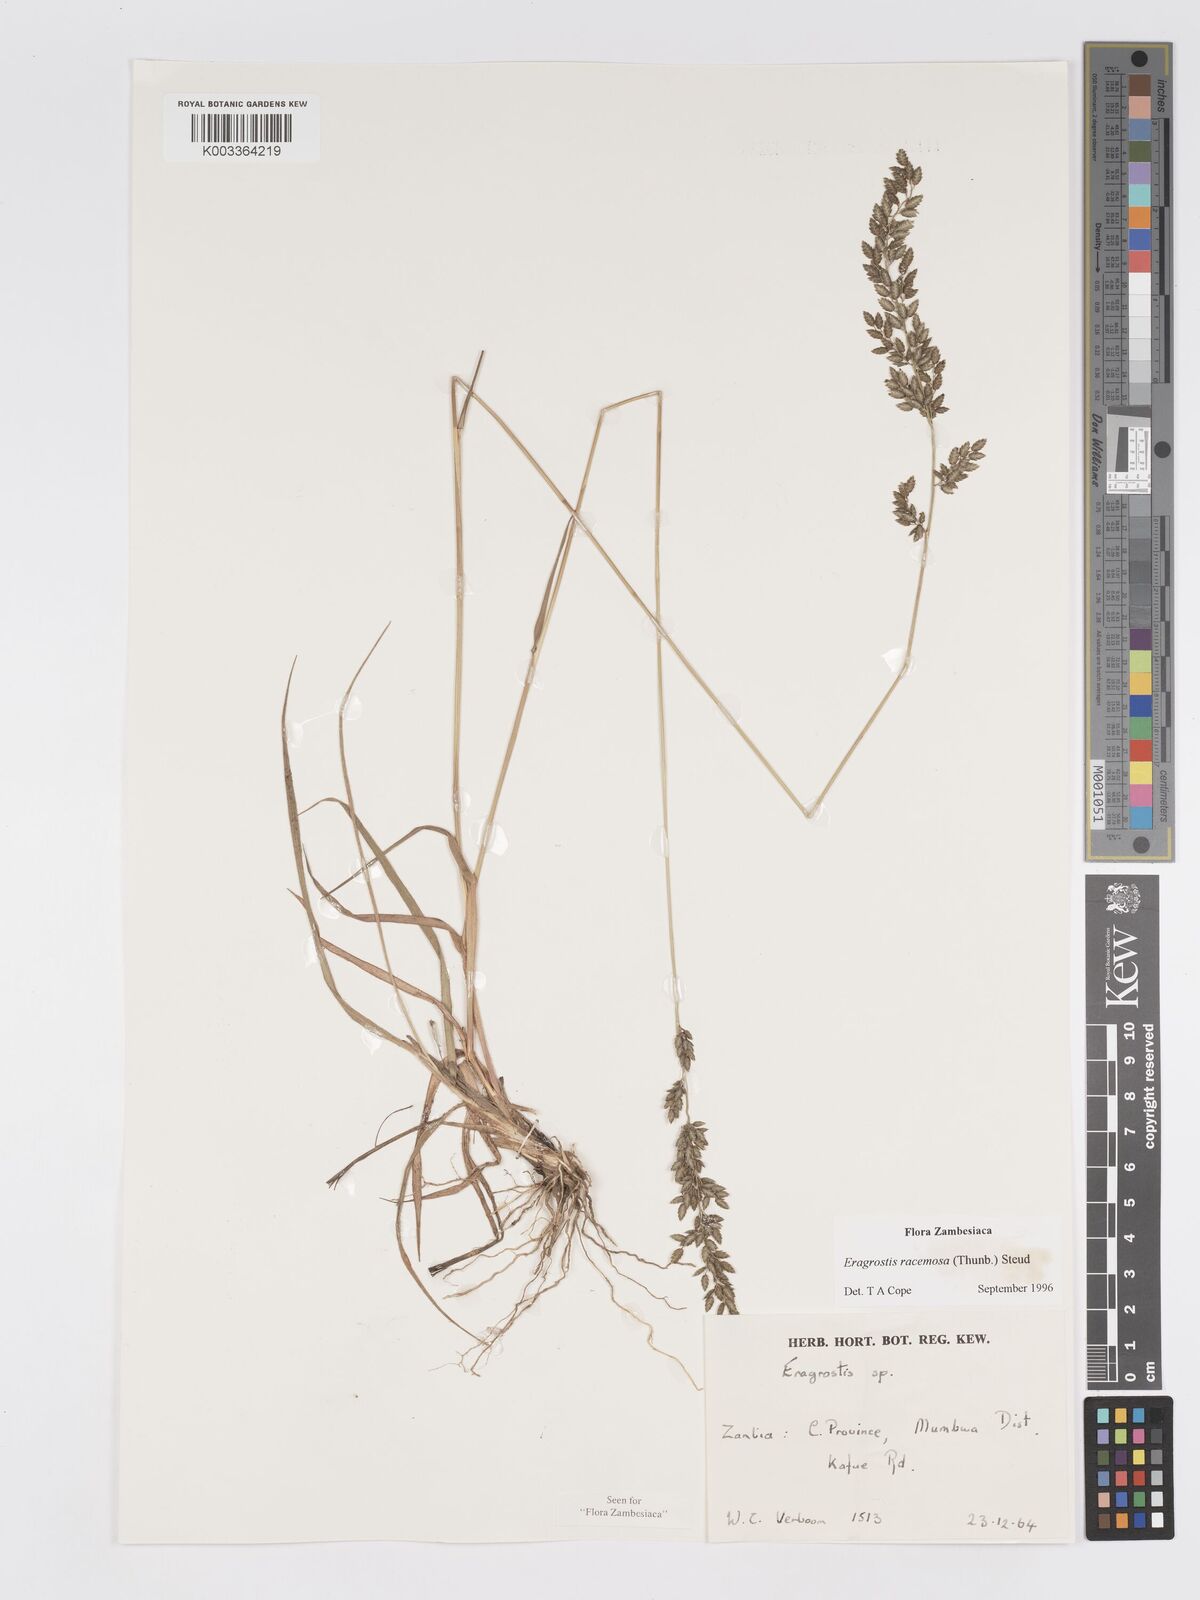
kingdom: Plantae
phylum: Tracheophyta
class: Liliopsida
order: Poales
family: Poaceae
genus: Eragrostis
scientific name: Eragrostis racemosa
